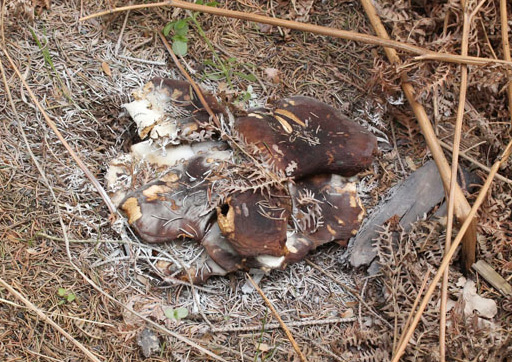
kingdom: Fungi
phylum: Basidiomycota
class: Agaricomycetes
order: Agaricales
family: Tricholomataceae
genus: Melanoleuca
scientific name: Melanoleuca cognata
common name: gyldengrå munkehat
